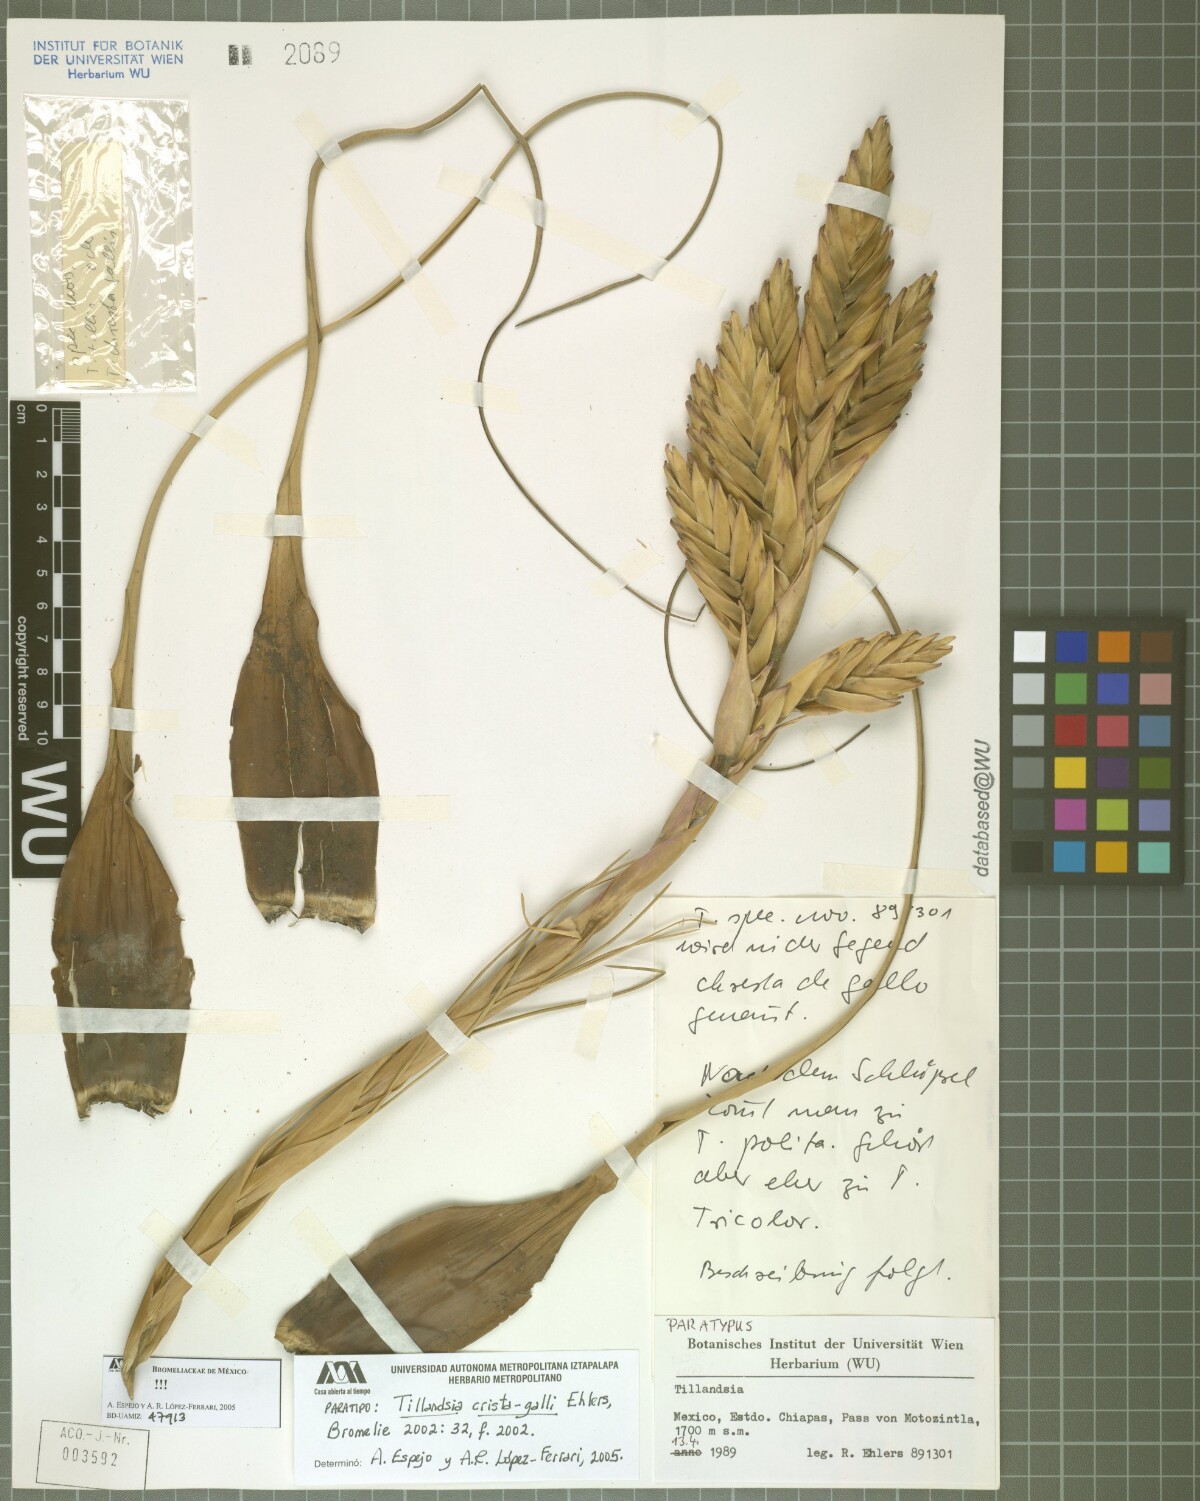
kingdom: Plantae
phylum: Tracheophyta
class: Liliopsida
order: Poales
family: Bromeliaceae
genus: Tillandsia
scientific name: Tillandsia crista-galli
